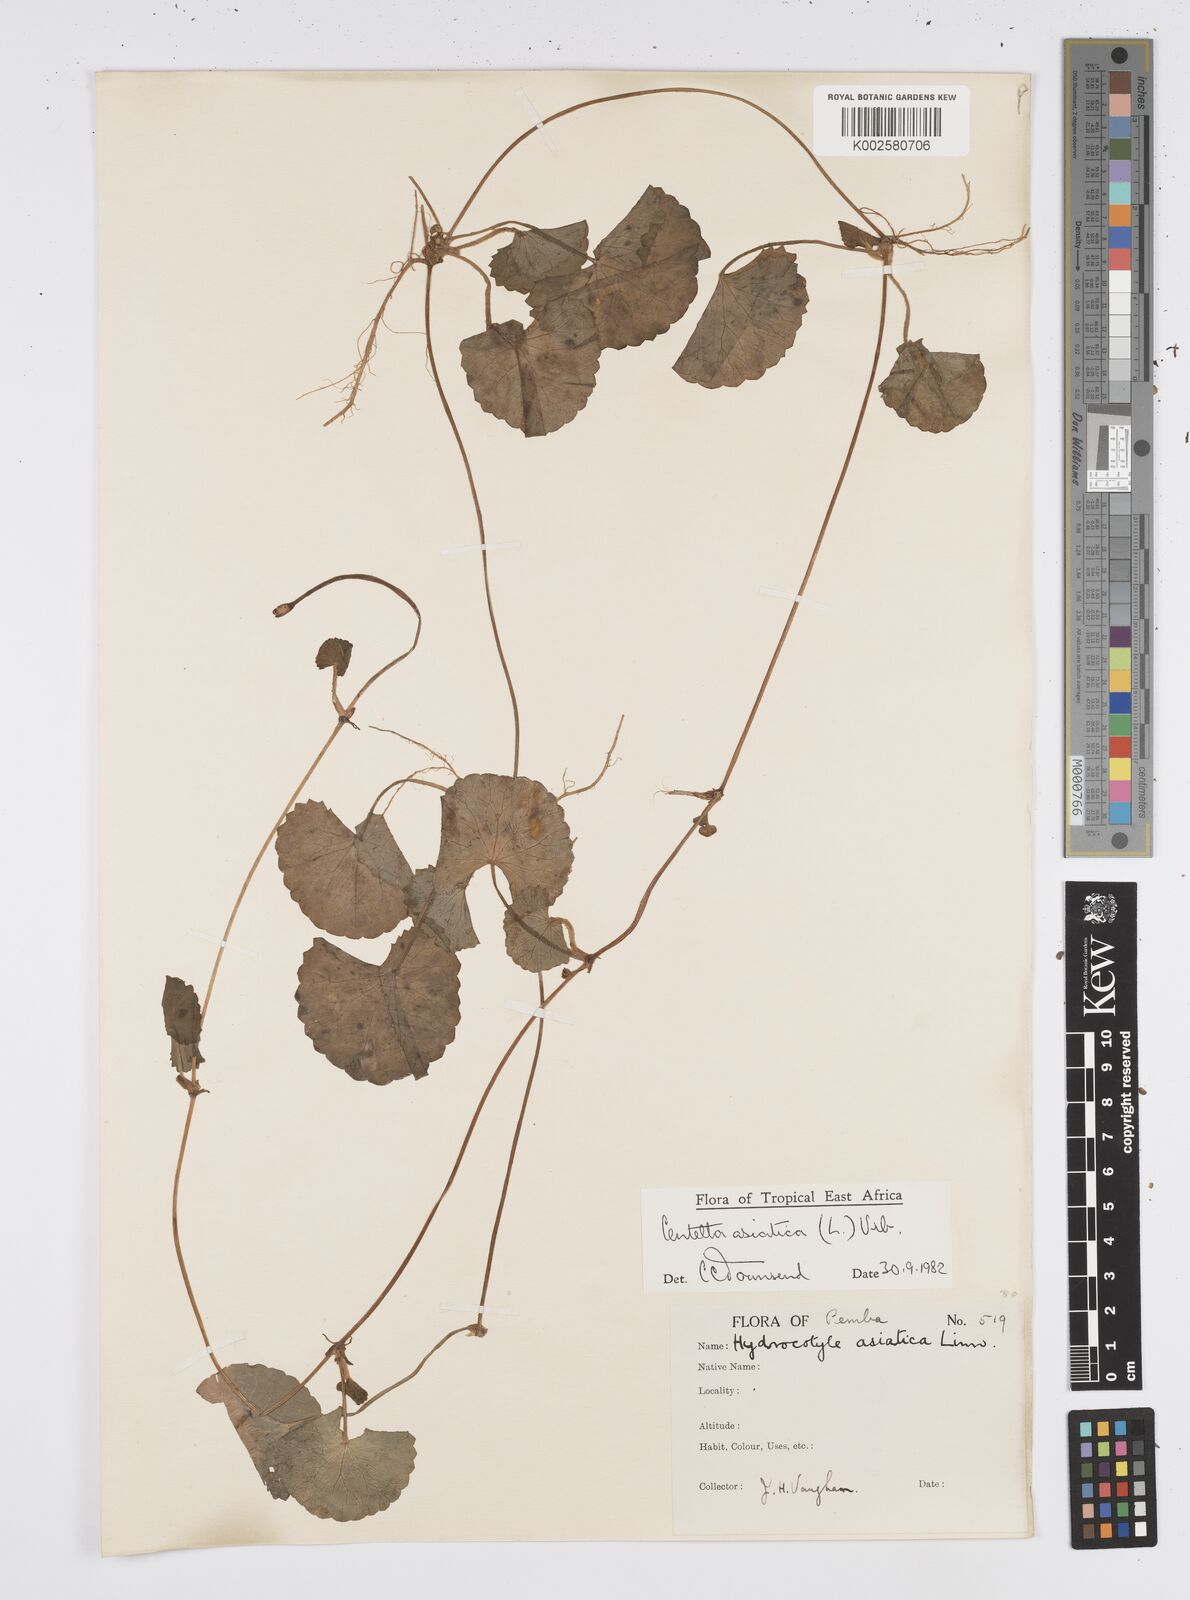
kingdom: Plantae
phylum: Tracheophyta
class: Magnoliopsida
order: Apiales
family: Apiaceae
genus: Centella
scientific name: Centella asiatica
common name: Spadeleaf
